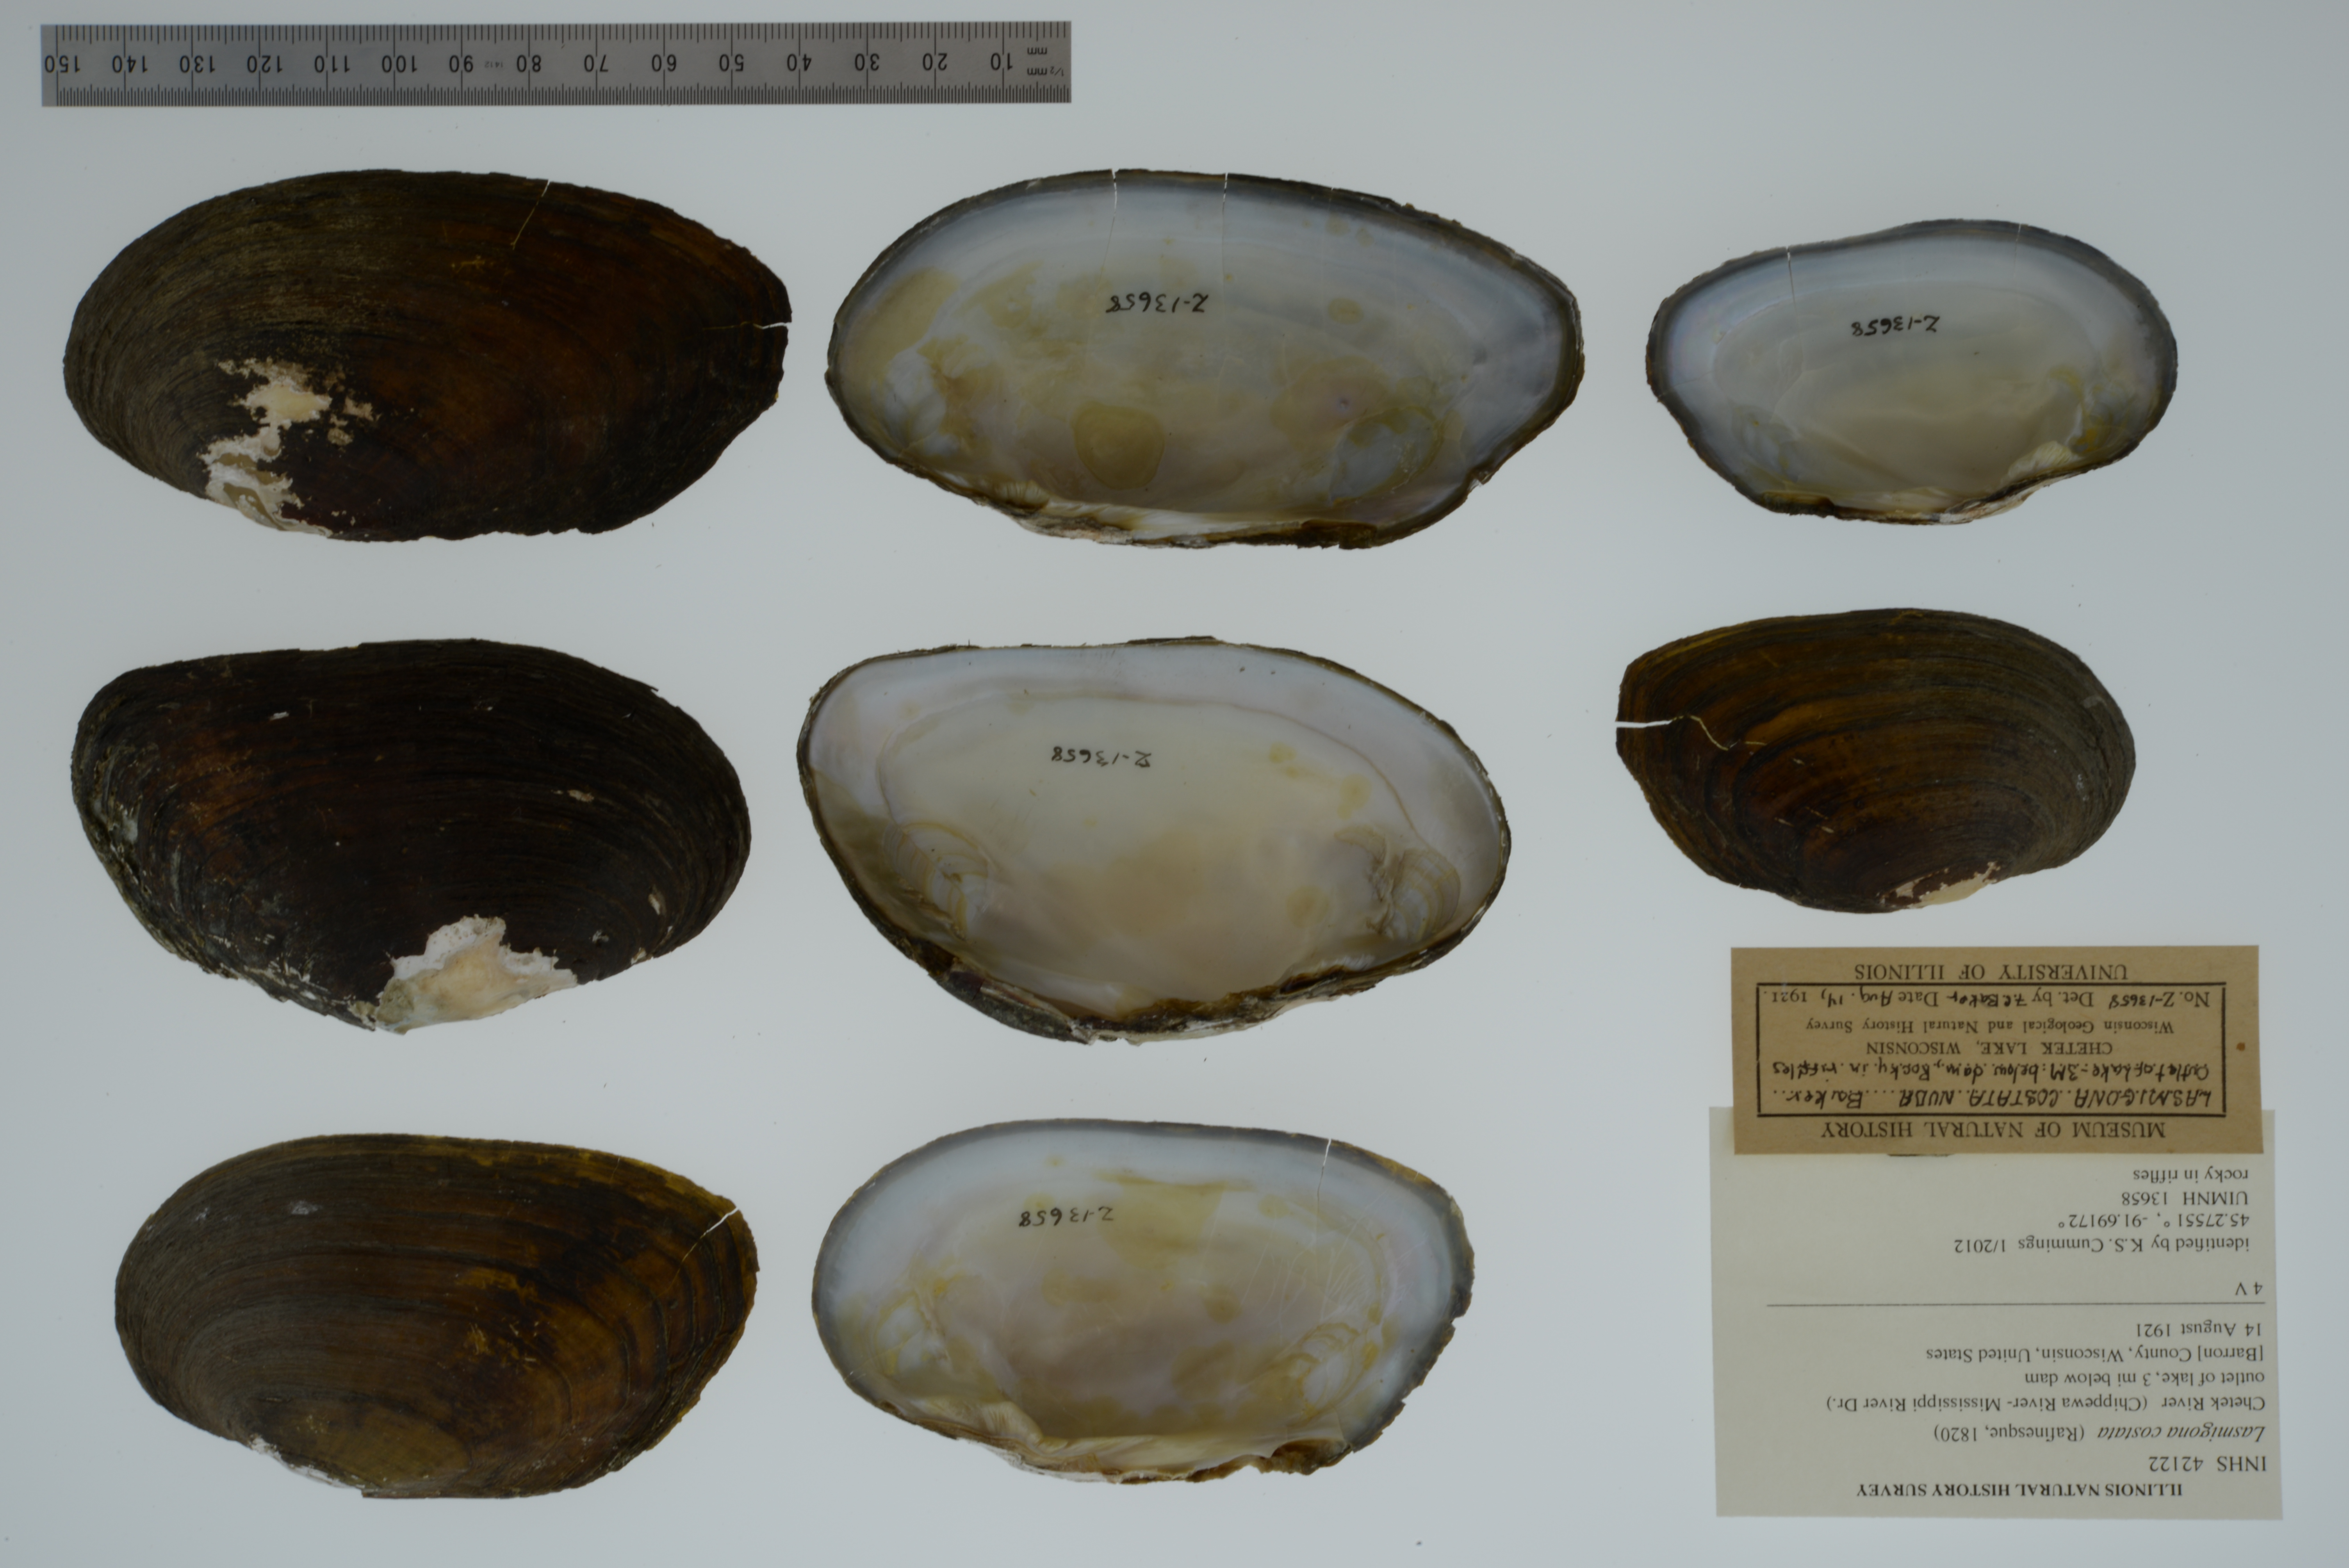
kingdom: Animalia
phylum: Mollusca
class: Bivalvia
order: Unionida
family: Unionidae
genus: Lasmigona
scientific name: Lasmigona costata
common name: Flutedshell
